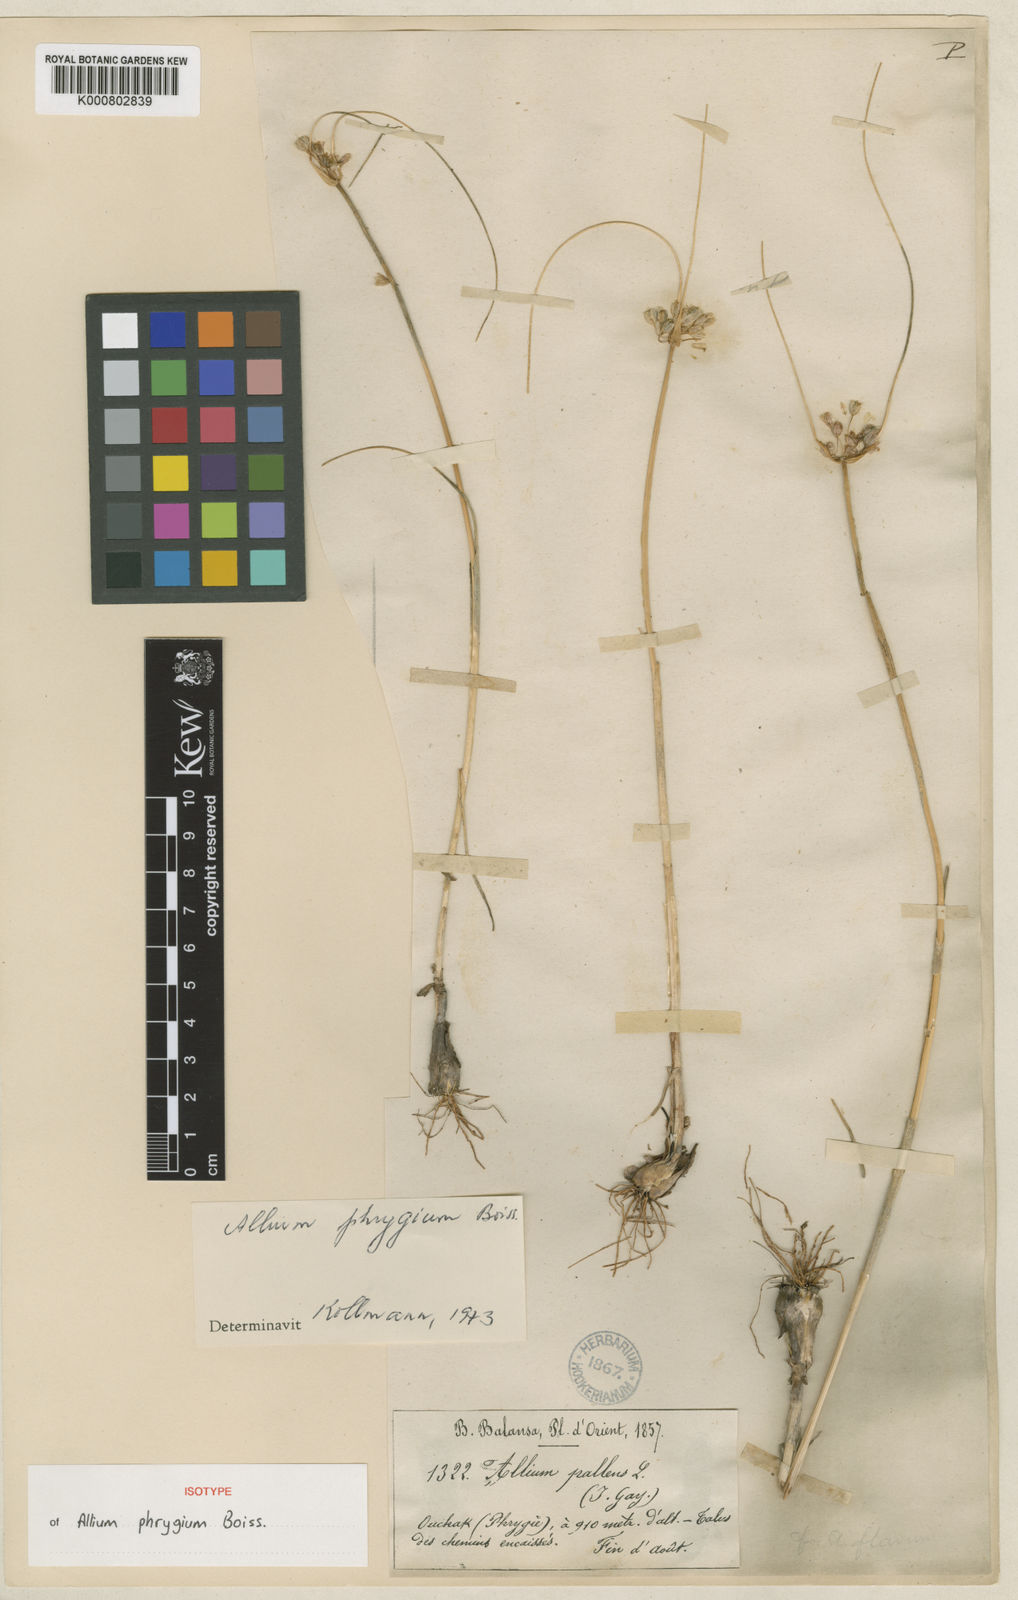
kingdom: Plantae
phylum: Tracheophyta
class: Liliopsida
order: Asparagales
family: Amaryllidaceae
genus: Allium
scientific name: Allium phrygium
